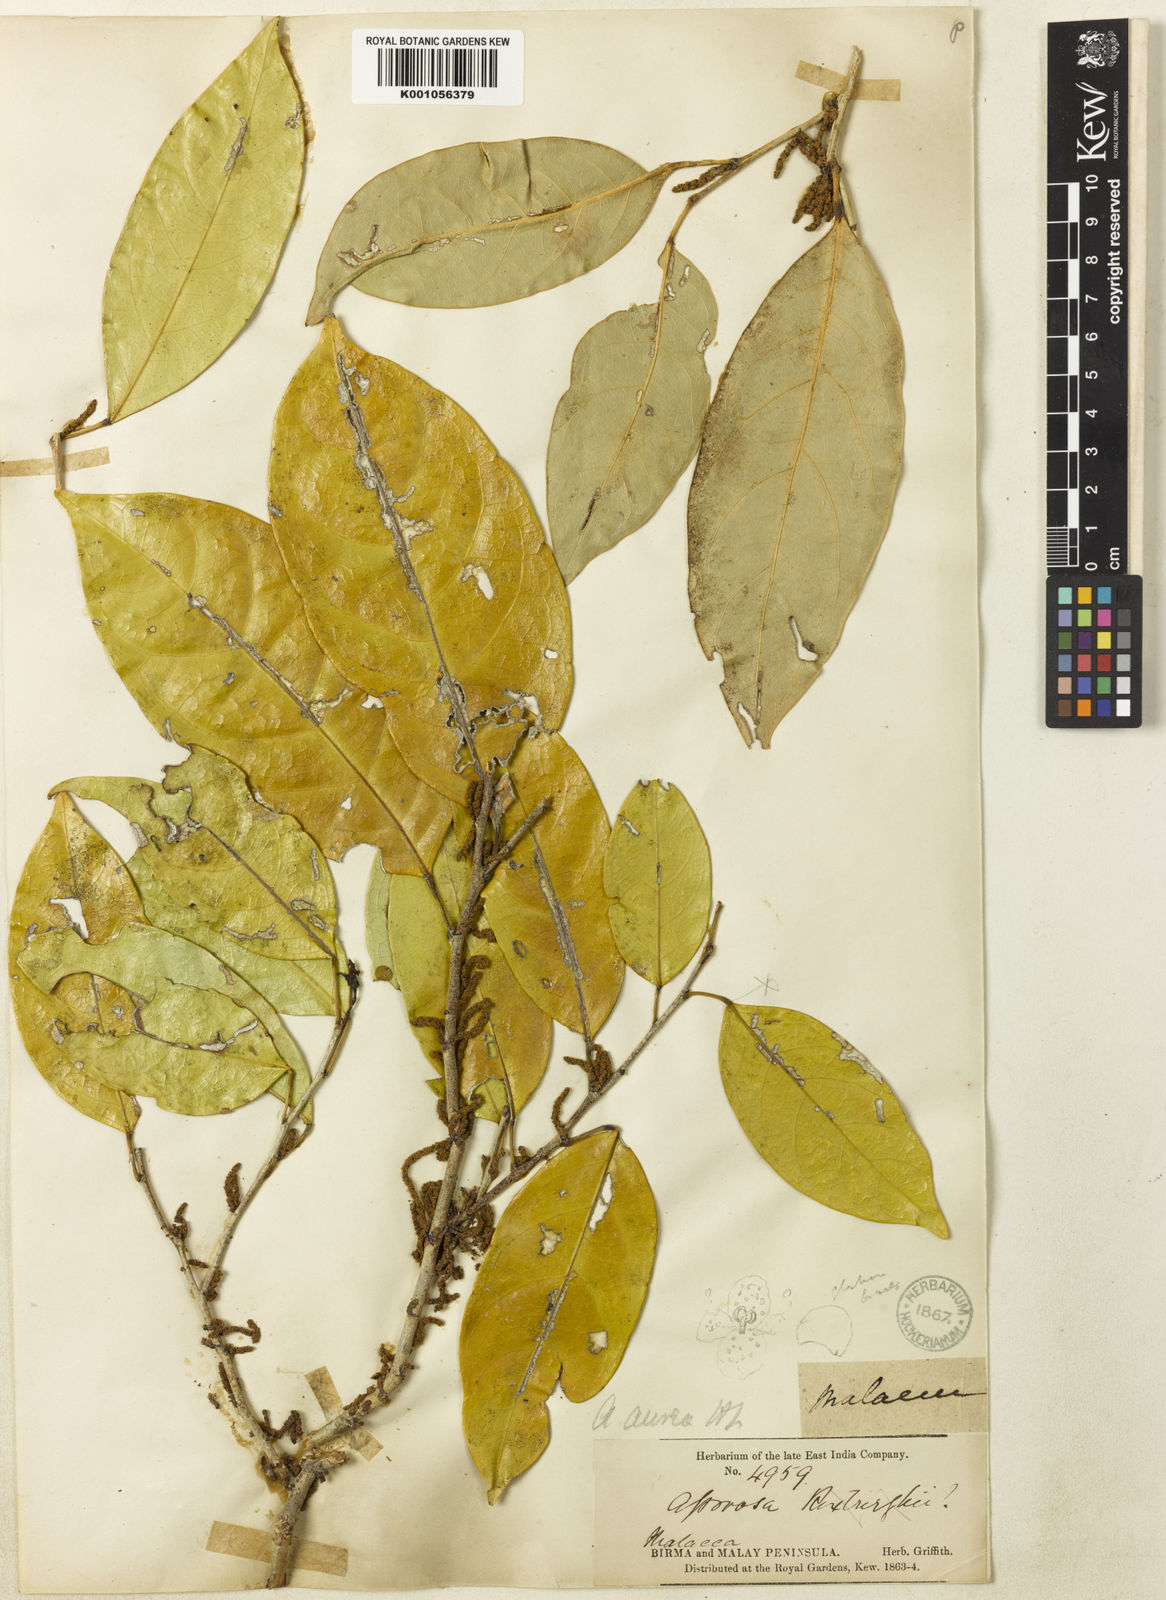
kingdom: Plantae
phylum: Tracheophyta
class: Magnoliopsida
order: Malpighiales
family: Phyllanthaceae
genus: Aporosa
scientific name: Aporosa aurea
